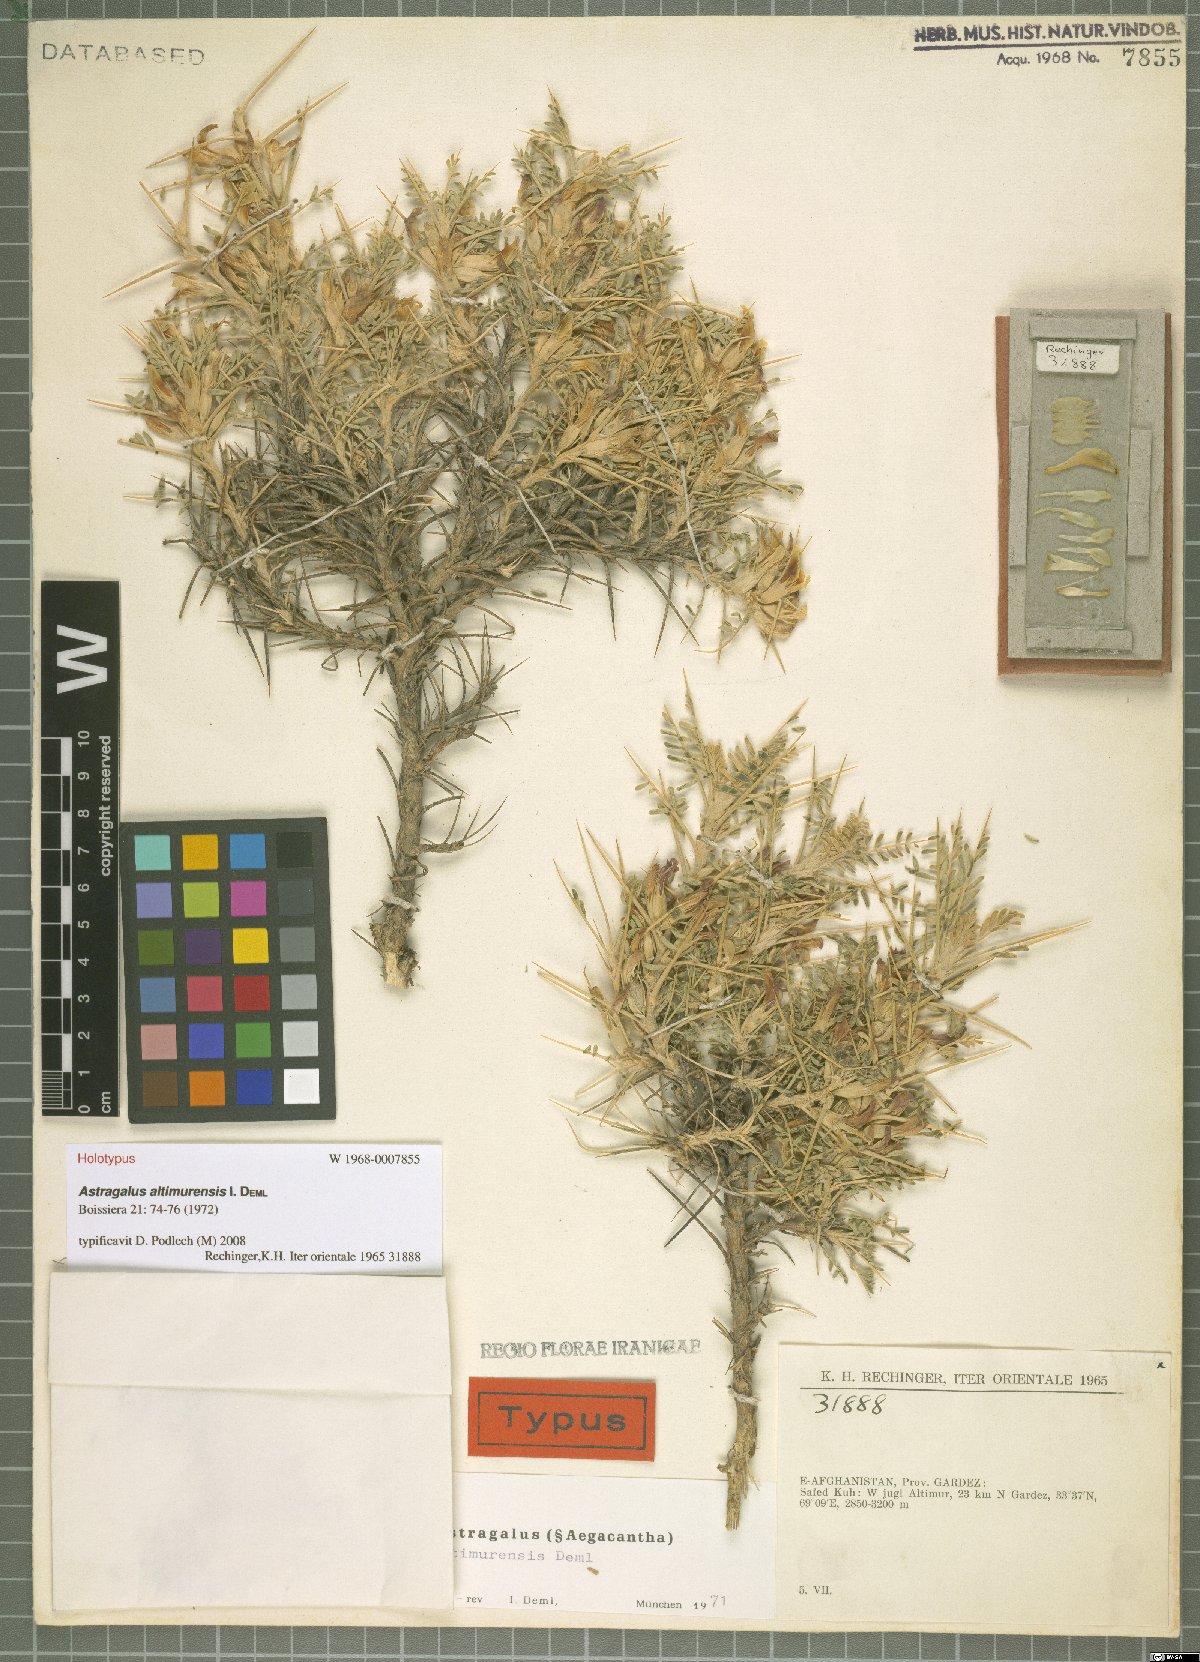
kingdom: Plantae
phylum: Tracheophyta
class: Magnoliopsida
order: Fabales
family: Fabaceae
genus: Astragalus
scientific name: Astragalus altimurensis
